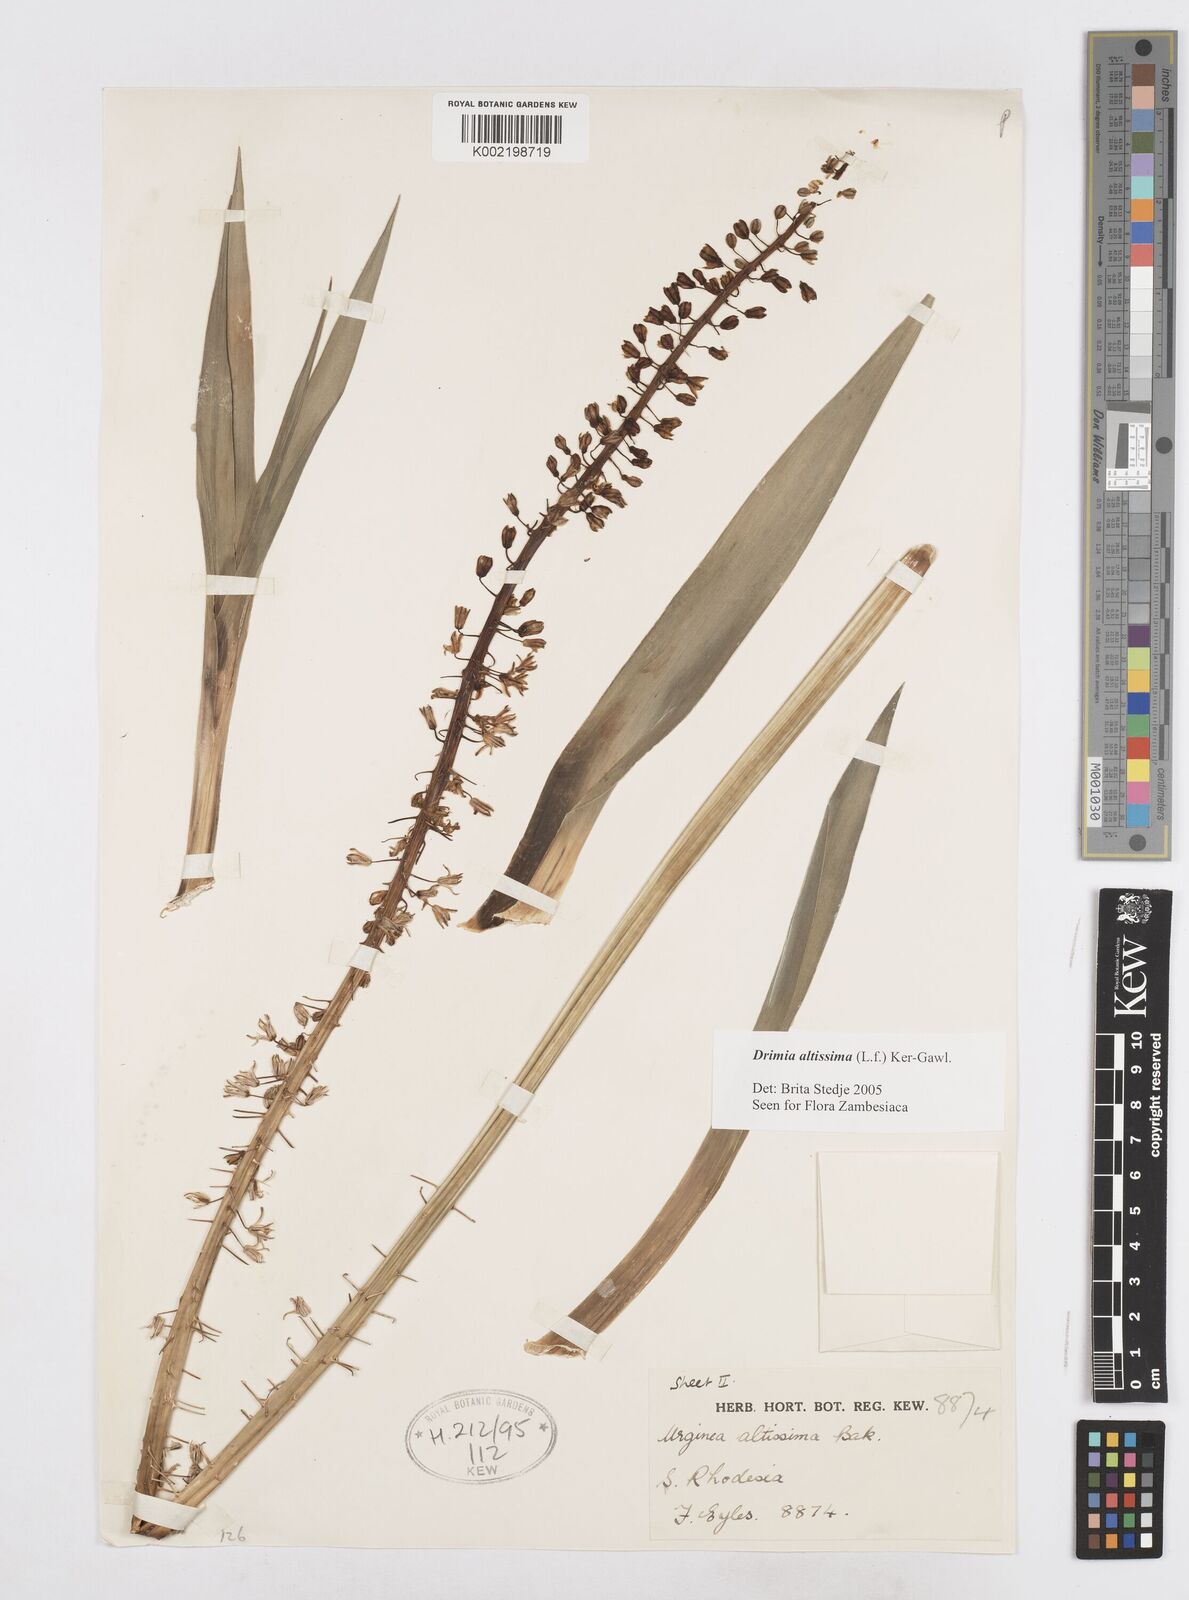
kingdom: Plantae
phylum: Tracheophyta
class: Liliopsida
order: Asparagales
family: Asparagaceae
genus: Drimia
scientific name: Drimia
